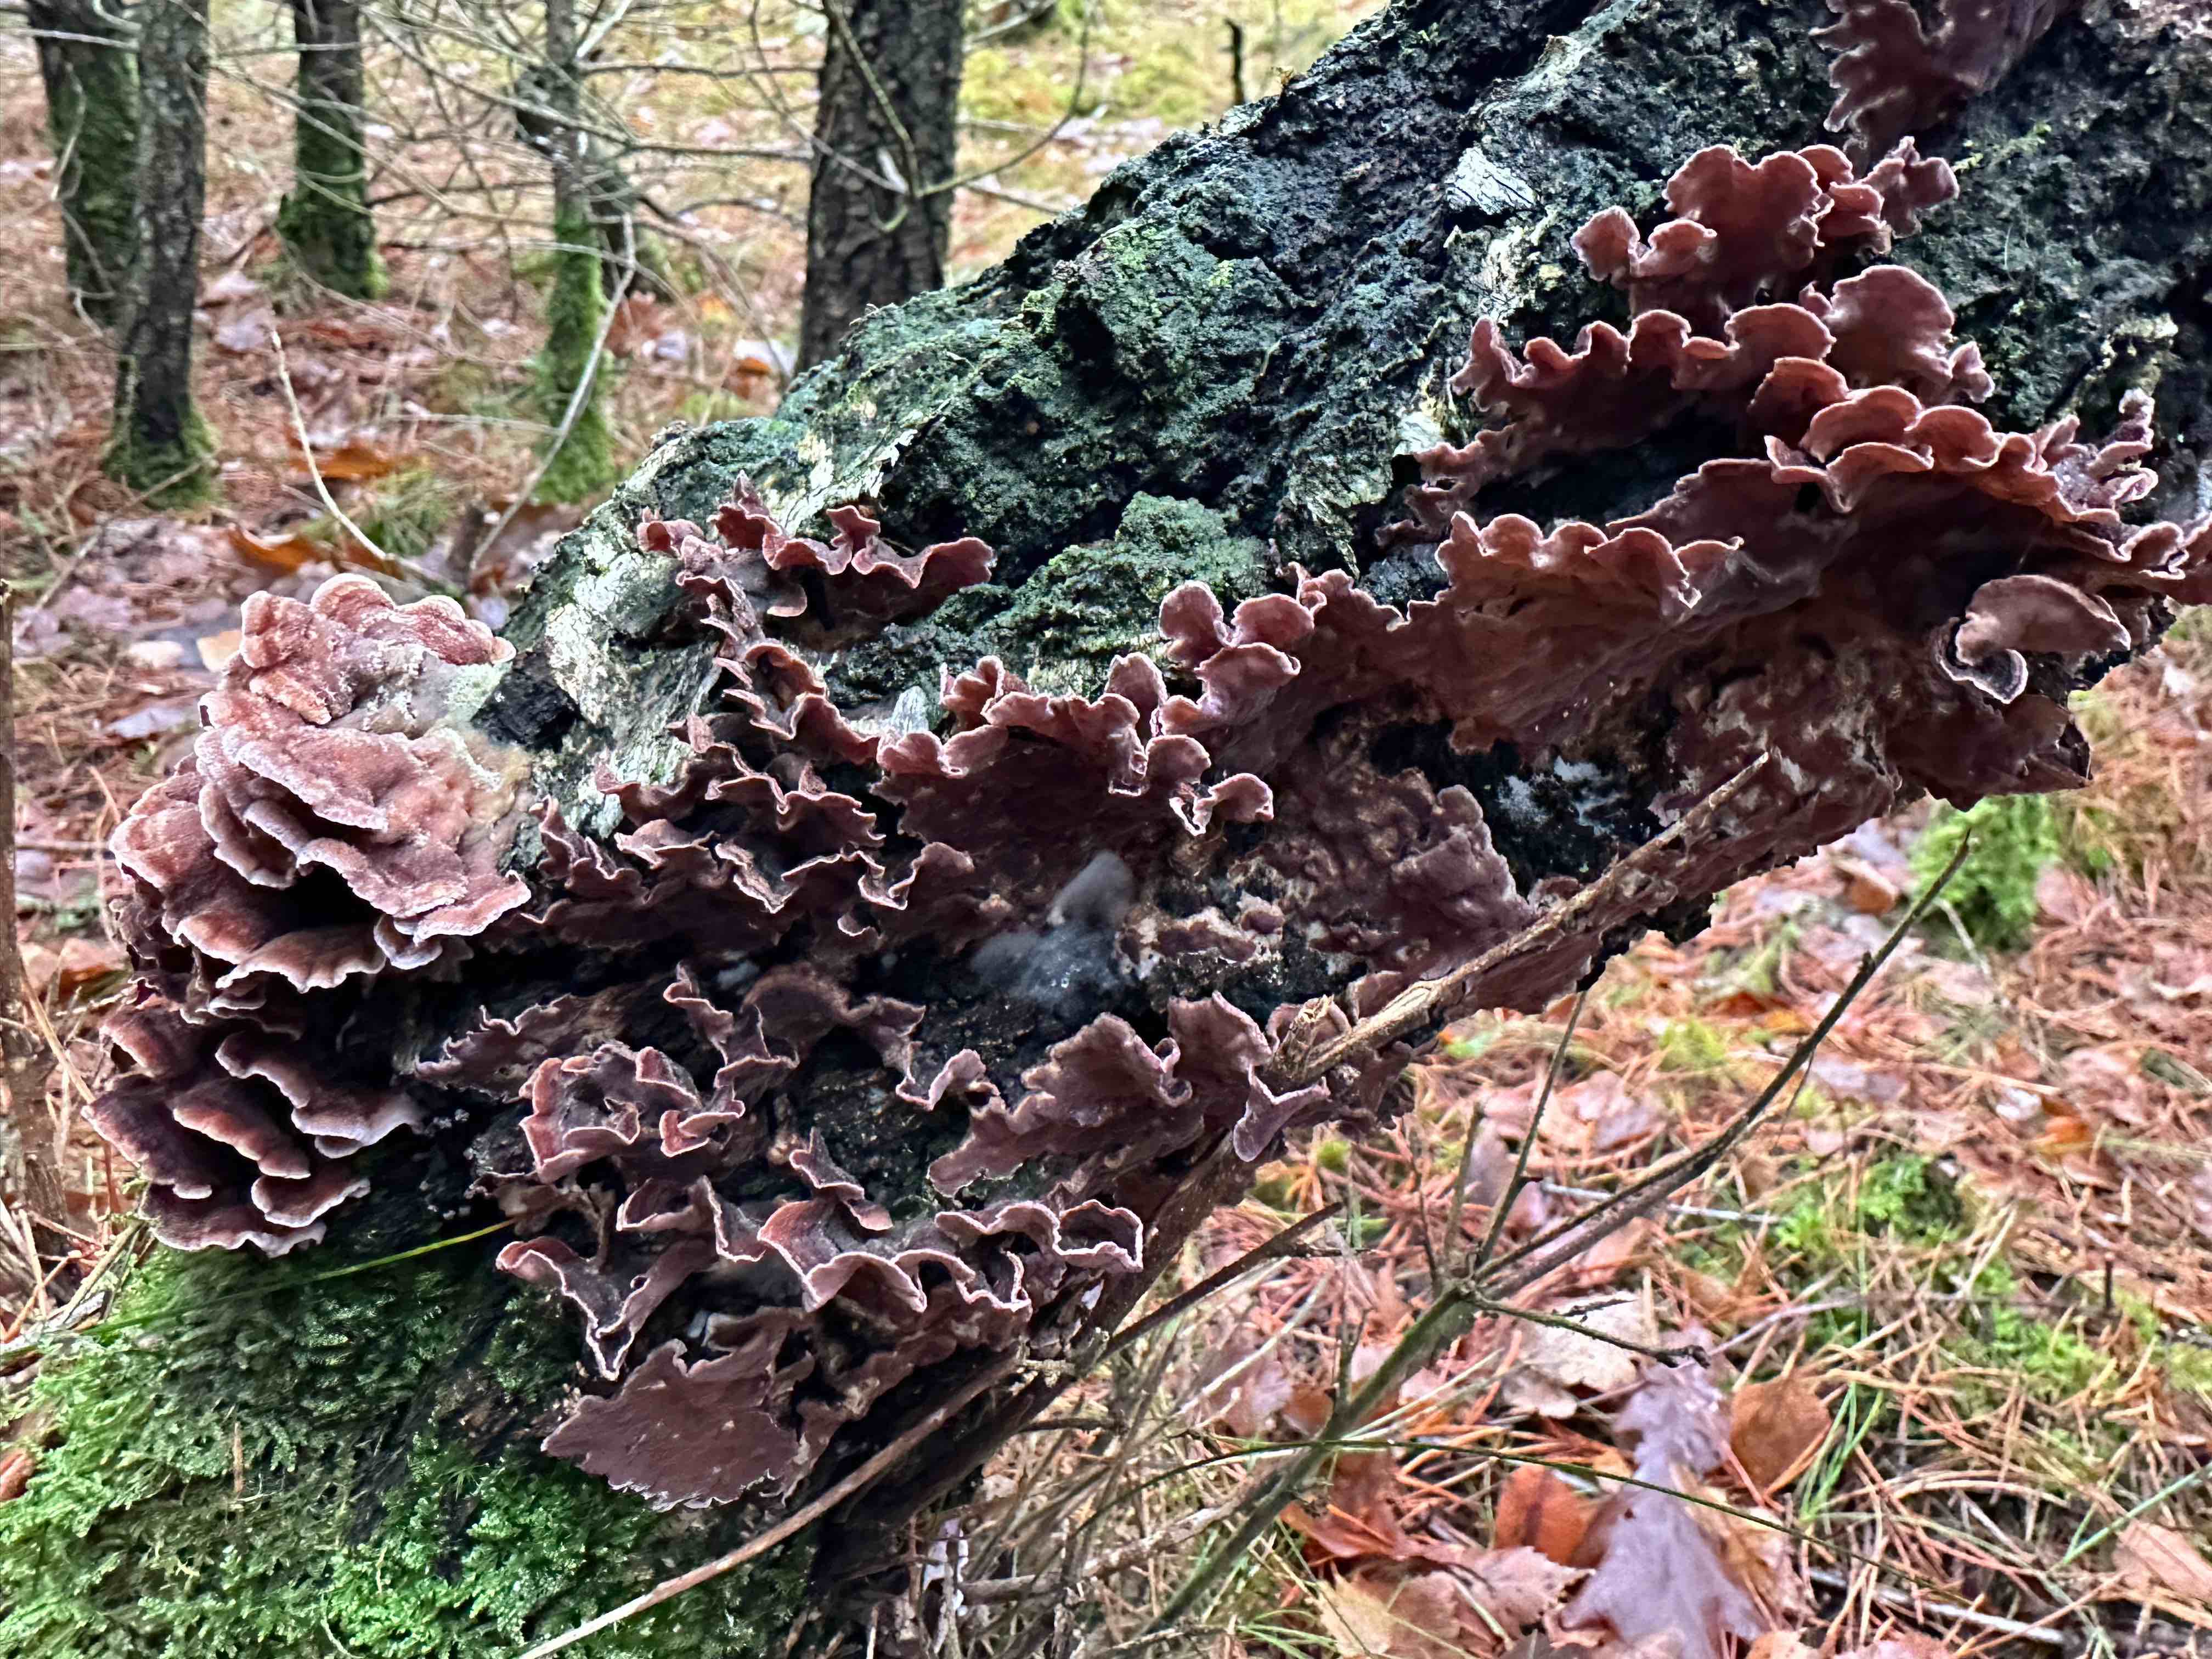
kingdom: Fungi
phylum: Basidiomycota
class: Agaricomycetes
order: Agaricales
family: Cyphellaceae
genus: Chondrostereum
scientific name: Chondrostereum purpureum
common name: purpurlædersvamp
